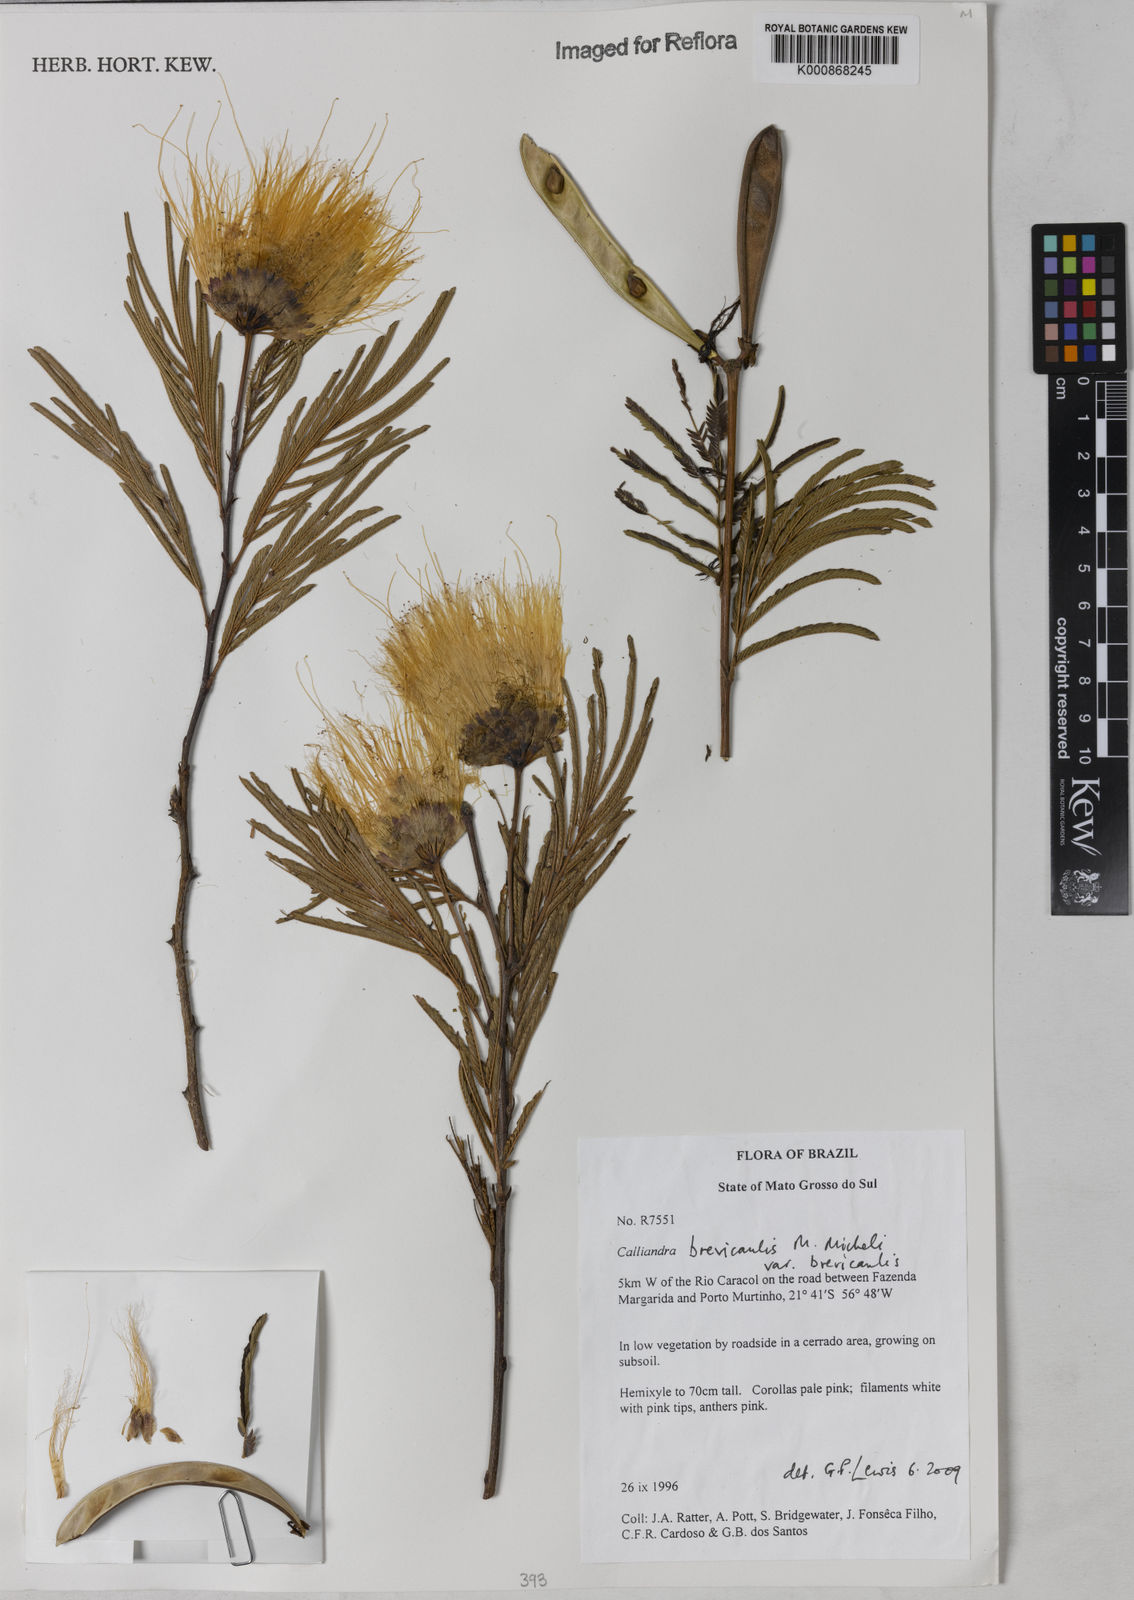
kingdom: Plantae
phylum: Tracheophyta
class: Magnoliopsida
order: Fabales
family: Fabaceae
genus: Calliandra
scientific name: Calliandra brevicaulis
